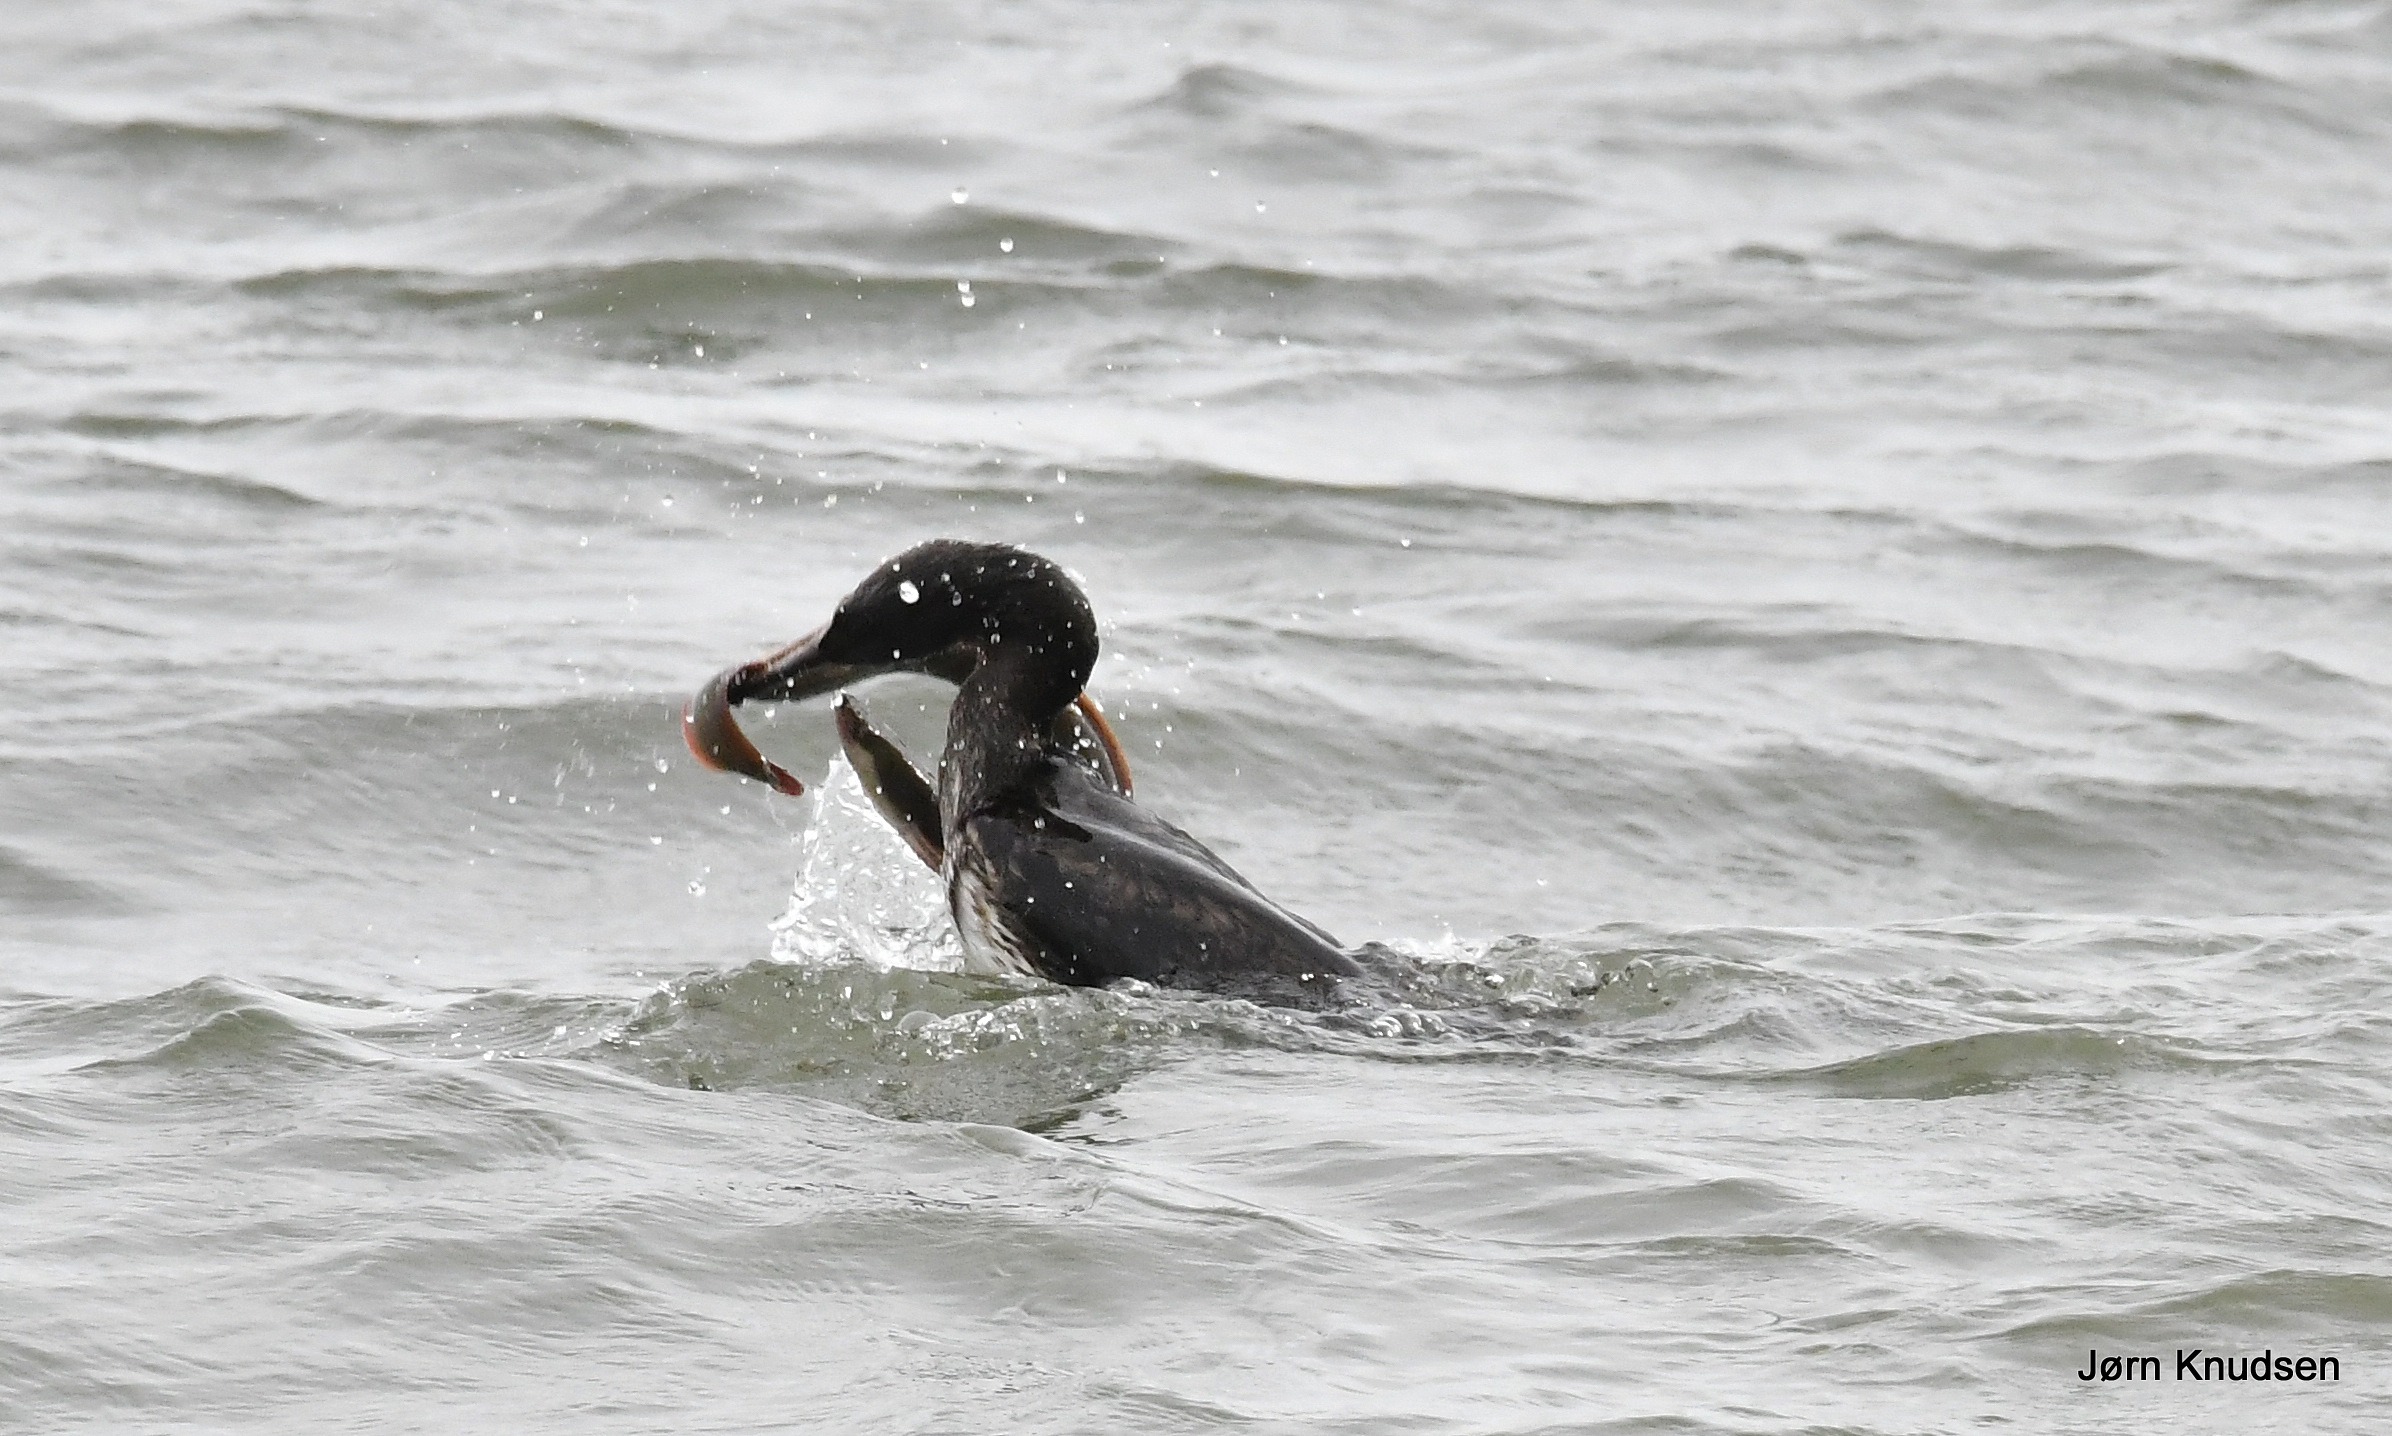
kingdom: Animalia
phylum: Chordata
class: Aves
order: Suliformes
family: Phalacrocoracidae
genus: Phalacrocorax
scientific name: Phalacrocorax carbo
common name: Skarv
